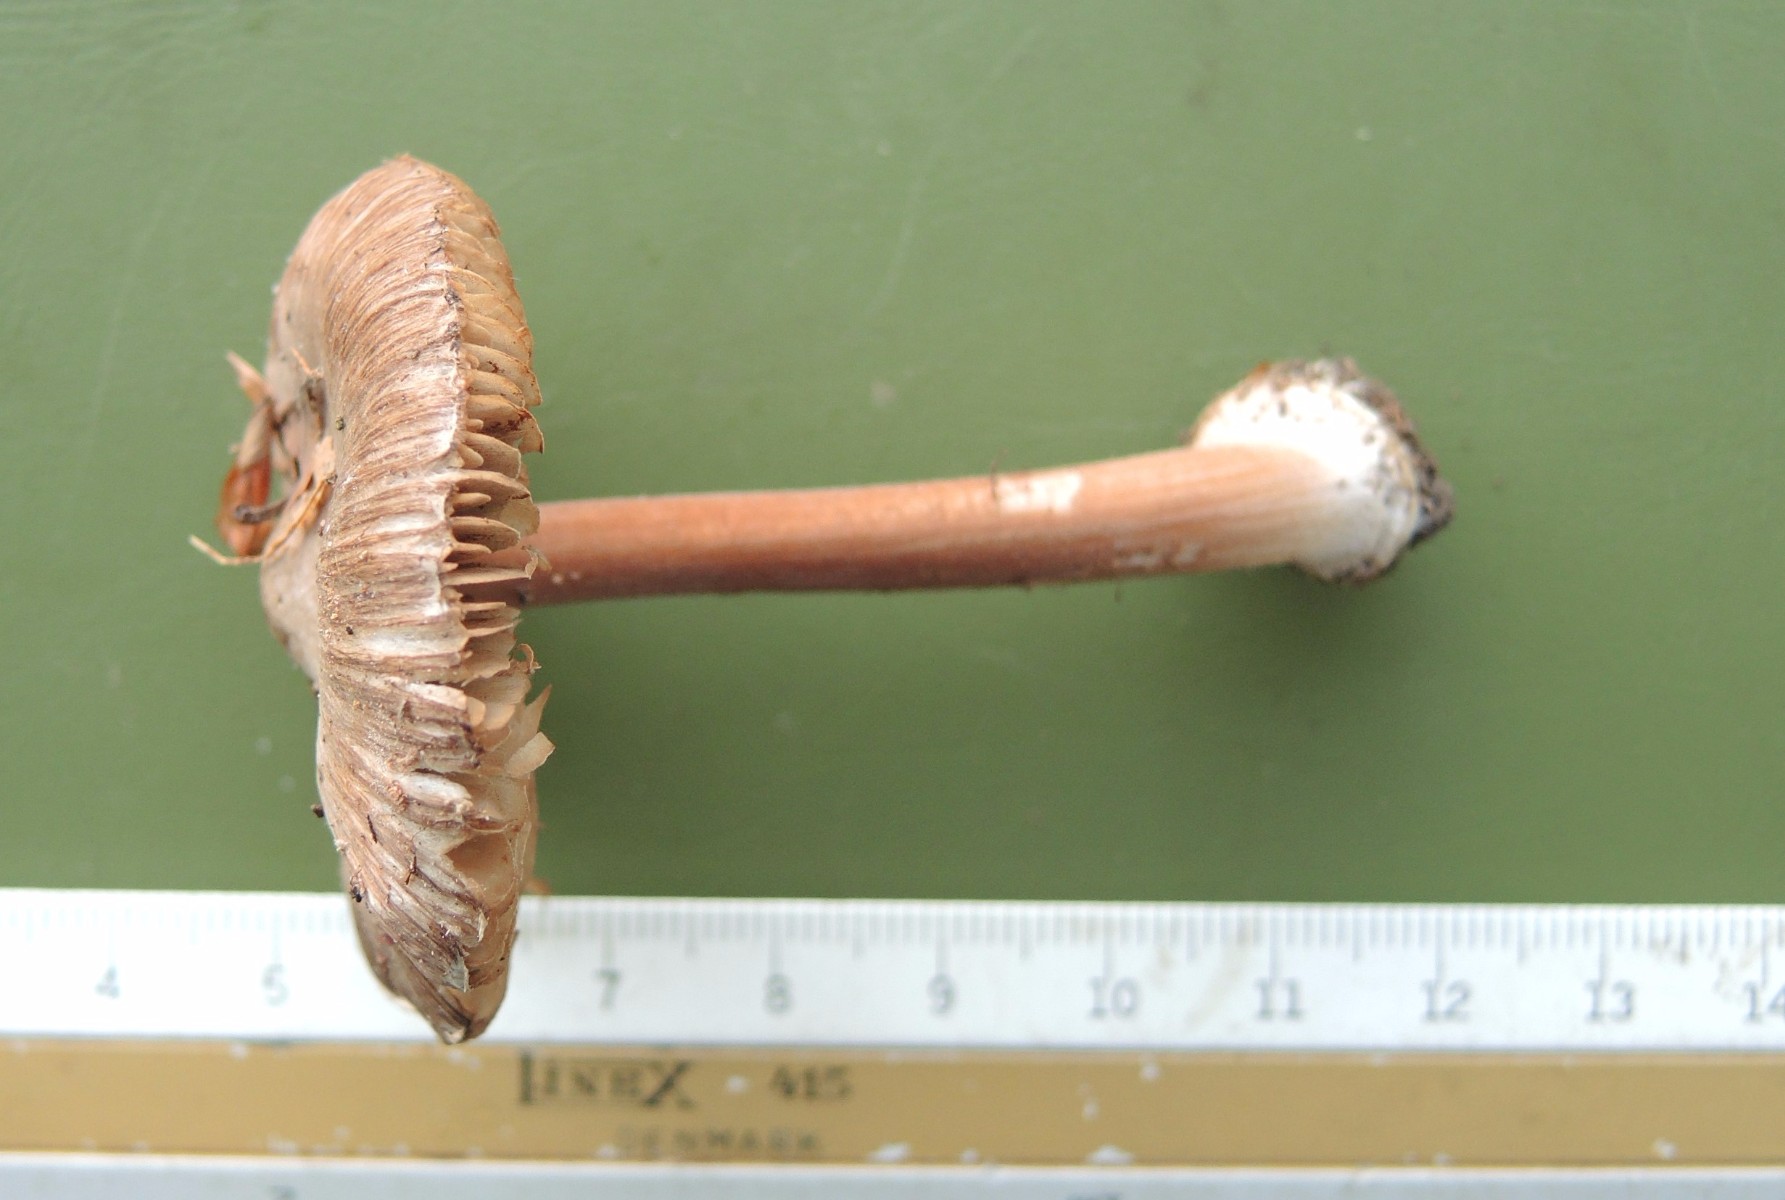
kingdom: Fungi
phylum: Basidiomycota
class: Agaricomycetes
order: Agaricales
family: Inocybaceae
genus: Inocybe
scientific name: Inocybe asterospora
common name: stjernesporet trævlhat
